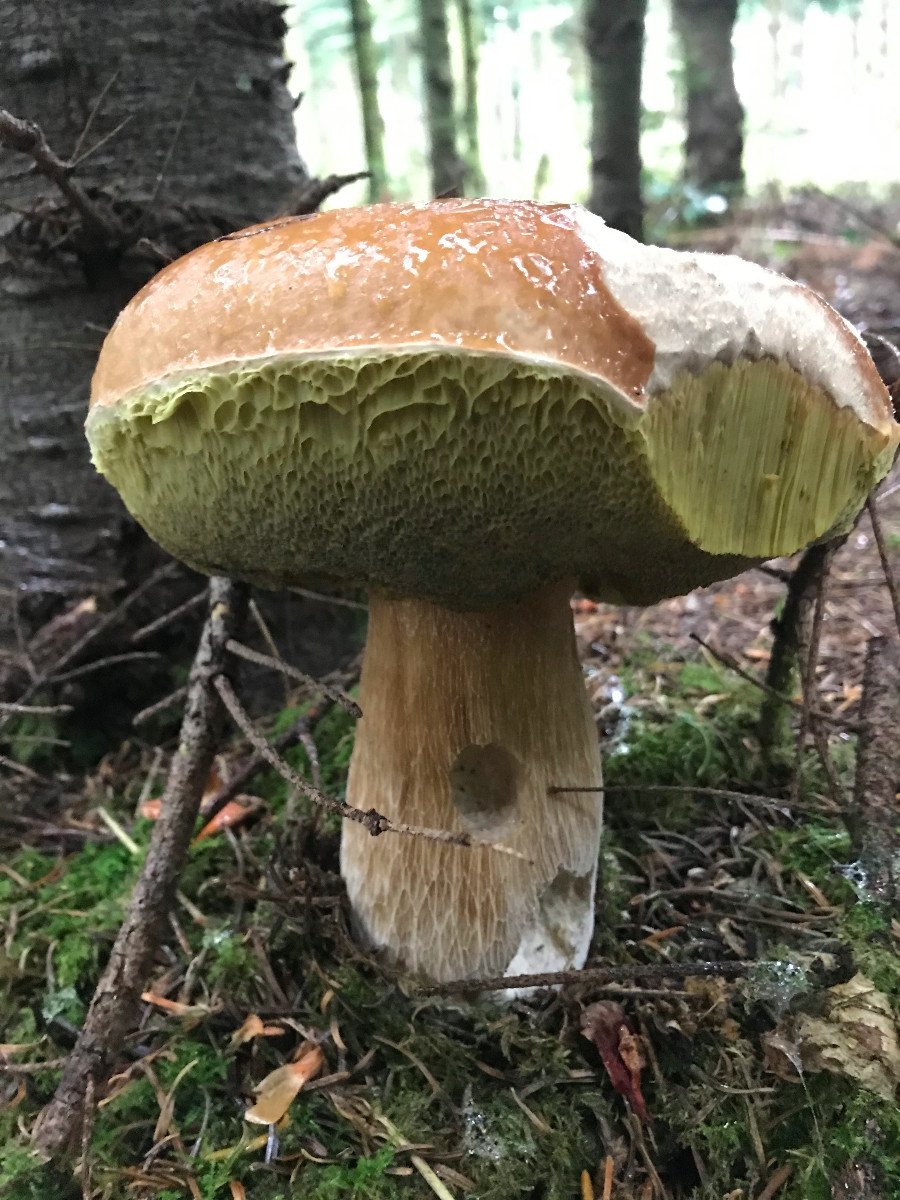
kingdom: Fungi
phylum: Basidiomycota
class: Agaricomycetes
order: Boletales
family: Boletaceae
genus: Boletus
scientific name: Boletus edulis
